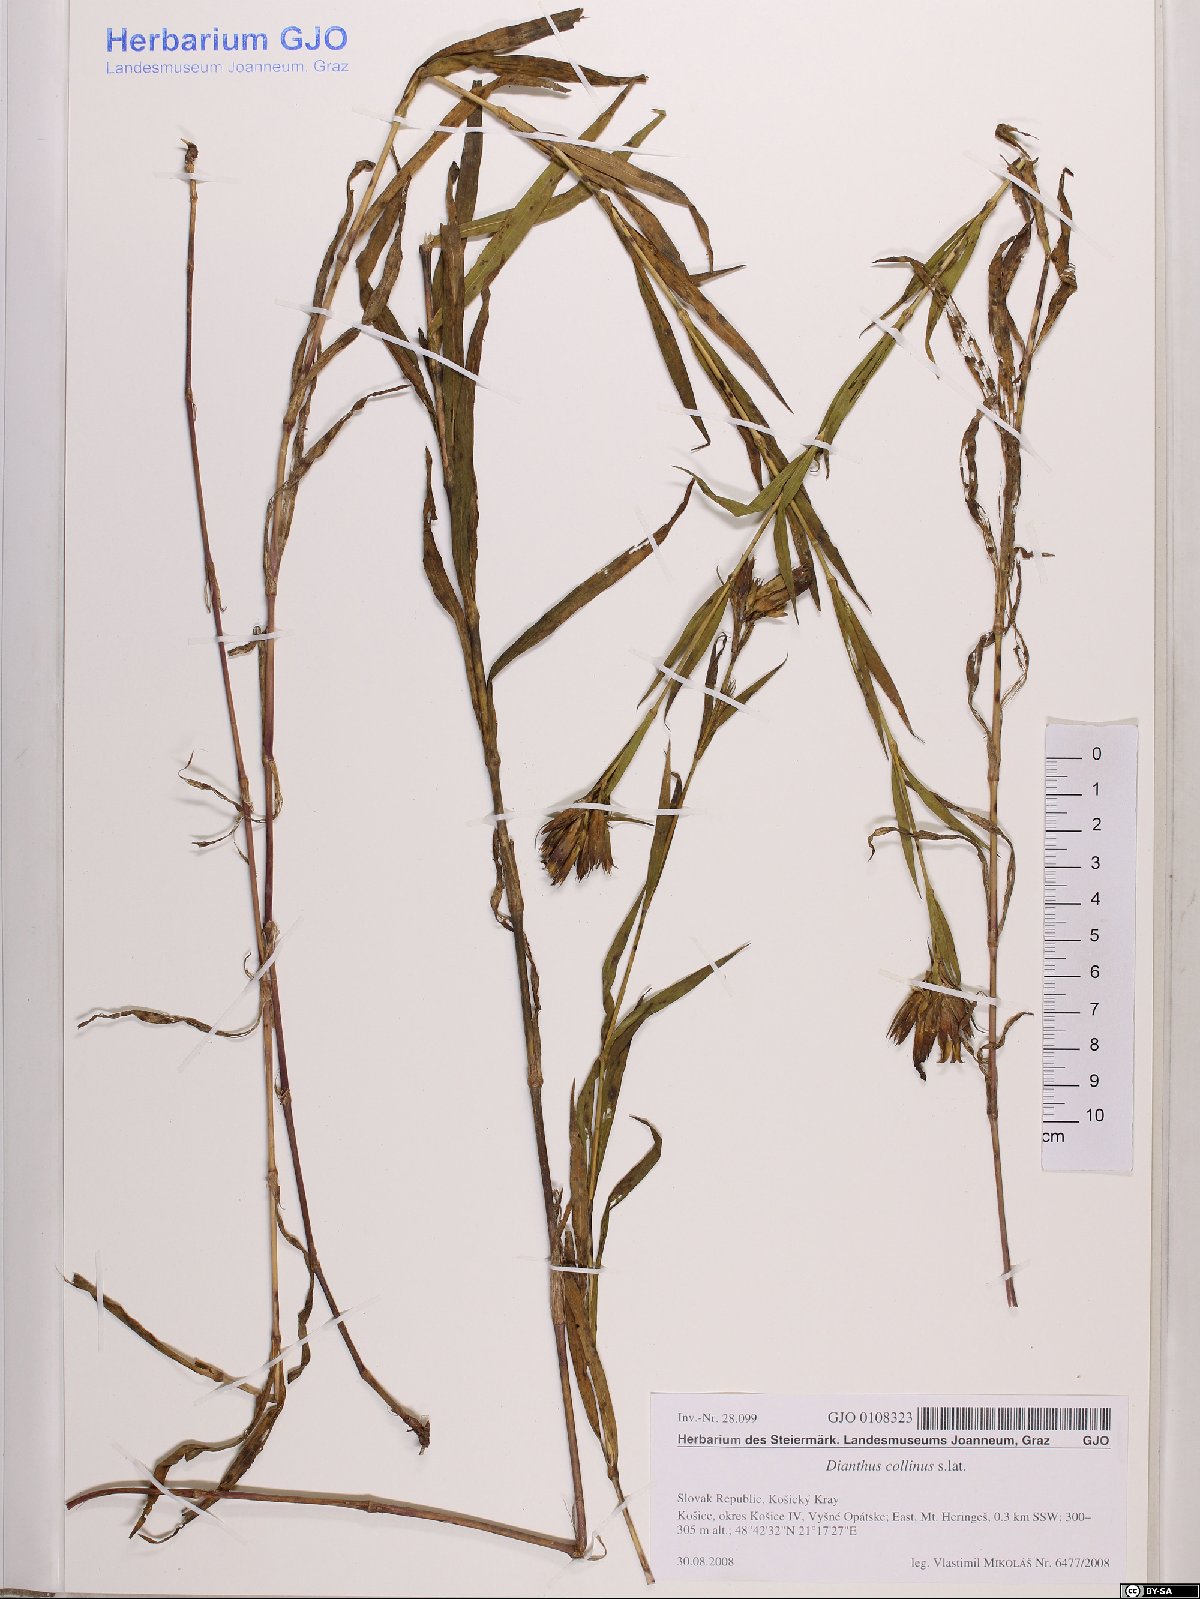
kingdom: Plantae
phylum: Tracheophyta
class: Magnoliopsida
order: Caryophyllales
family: Caryophyllaceae
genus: Dianthus
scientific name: Dianthus collinus
